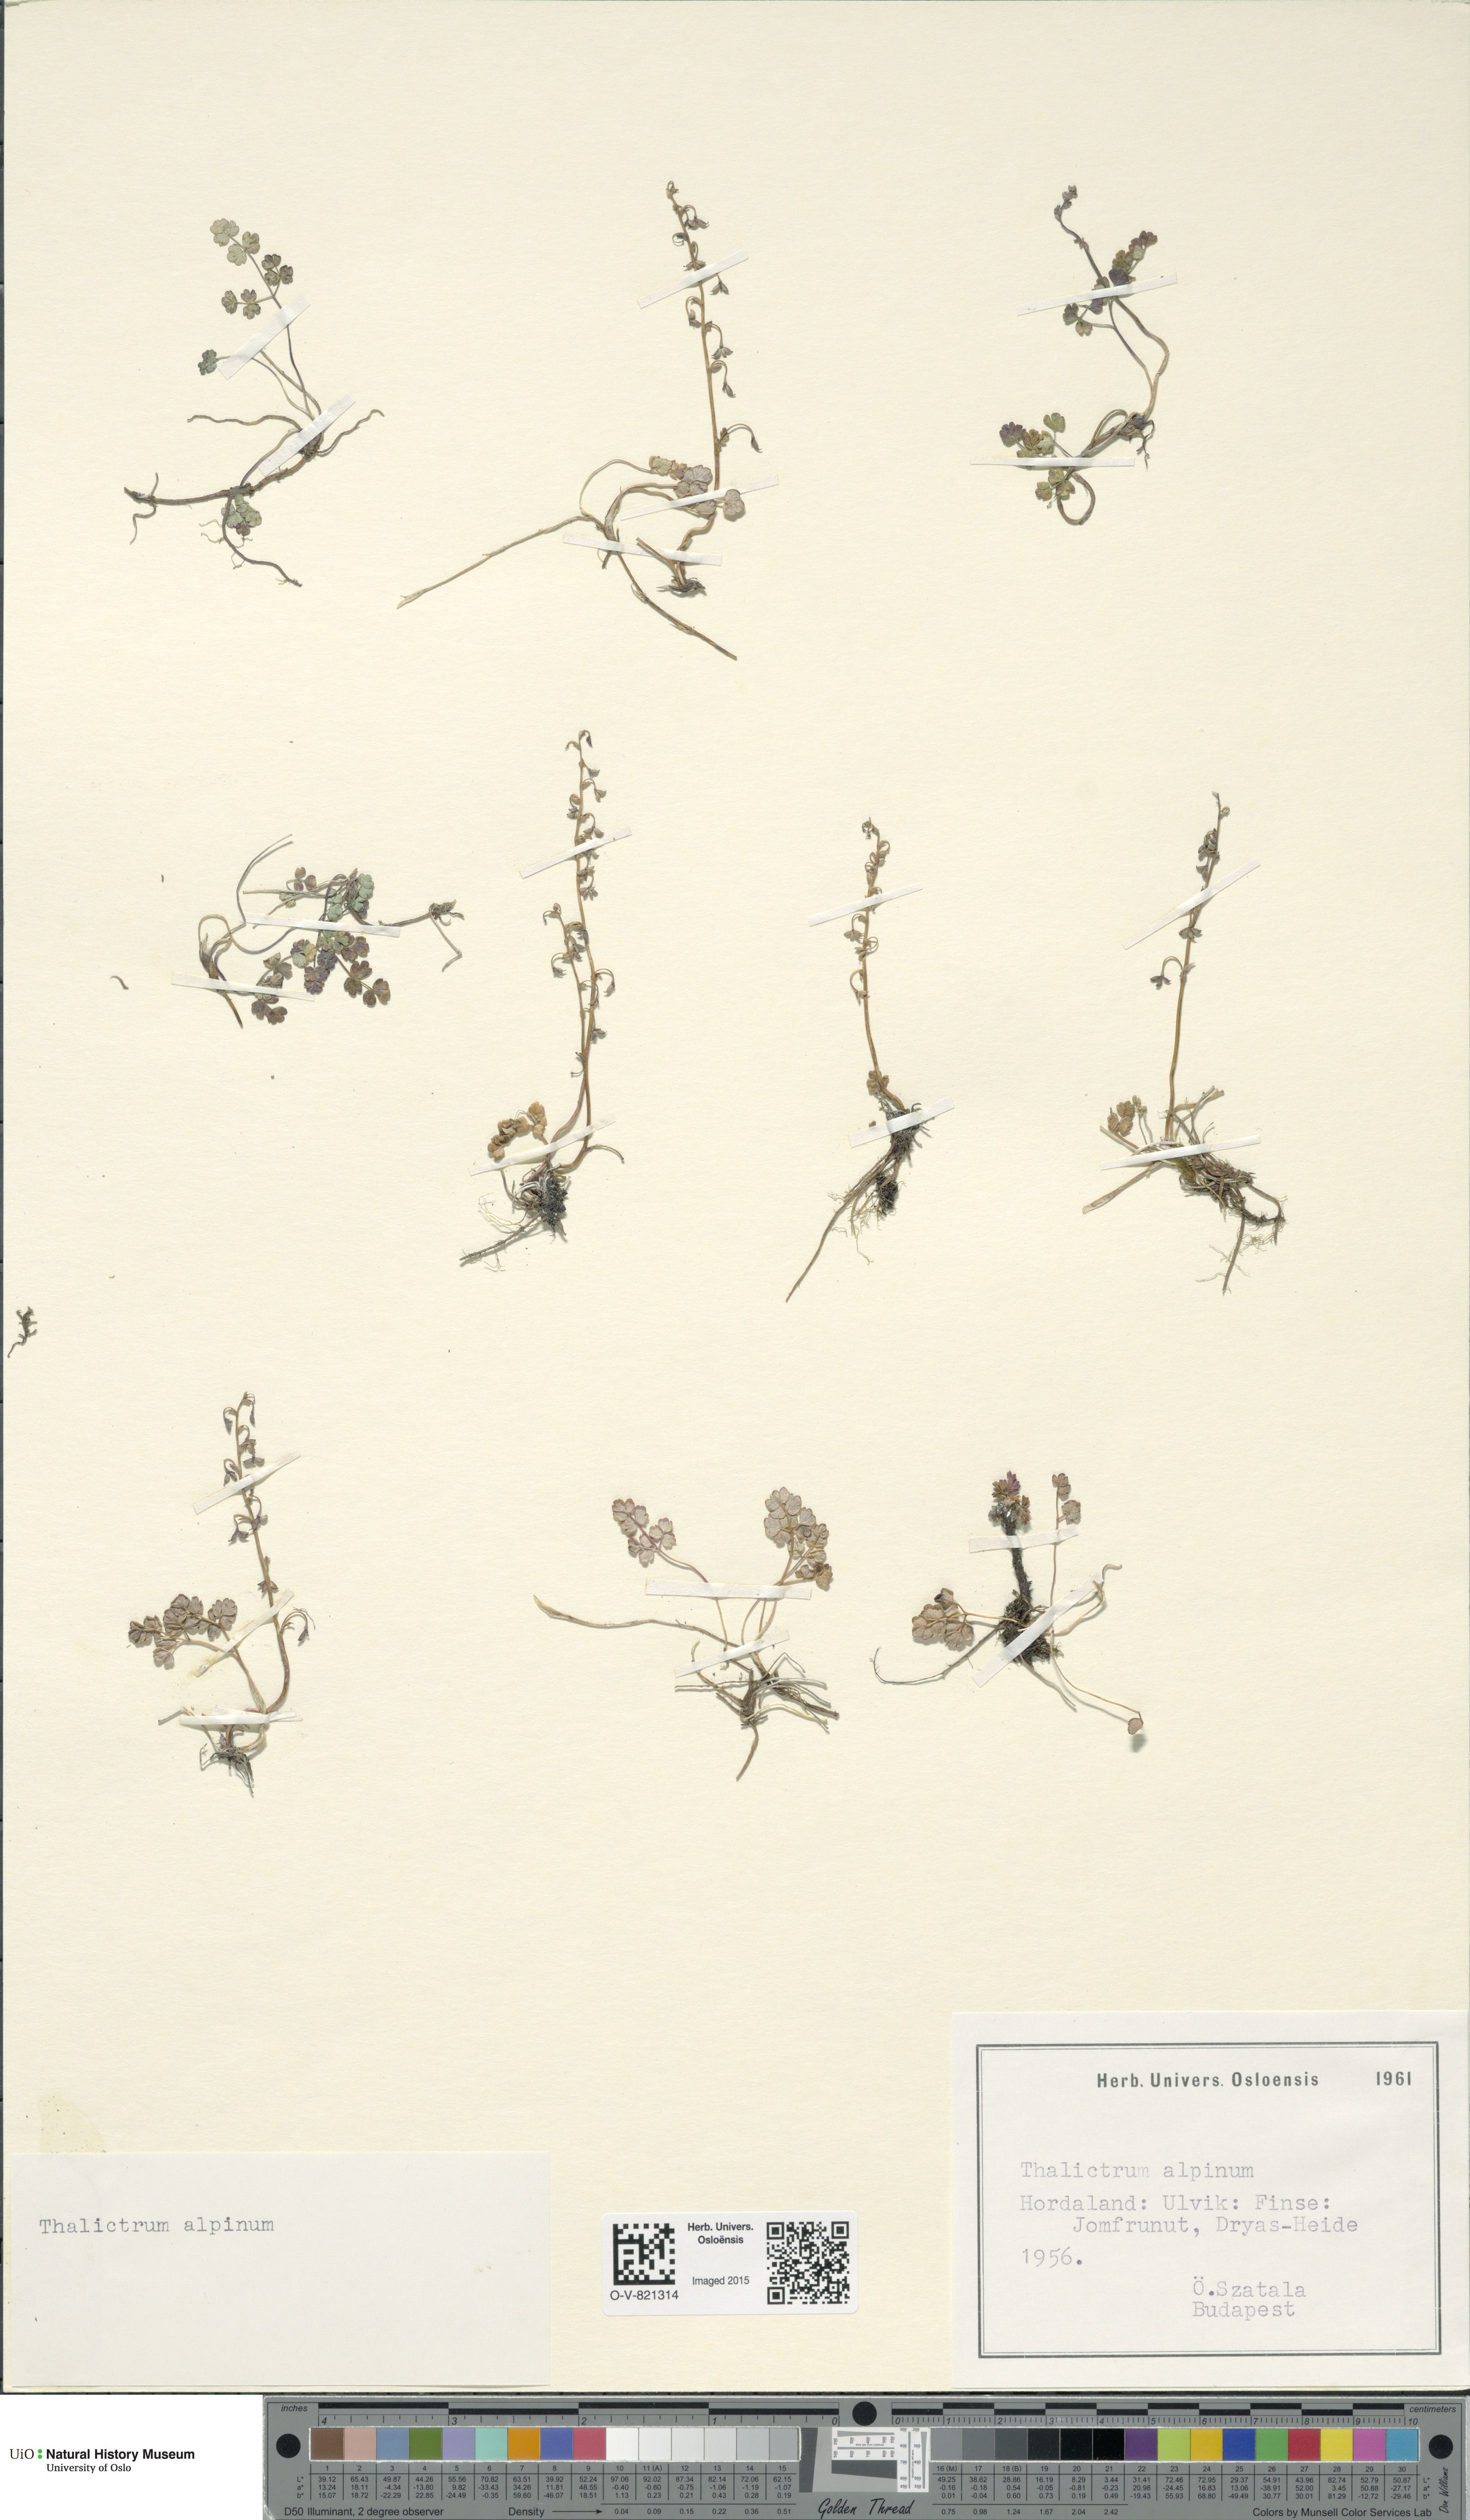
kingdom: Plantae
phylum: Tracheophyta
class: Magnoliopsida
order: Ranunculales
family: Ranunculaceae
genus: Thalictrum
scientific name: Thalictrum alpinum
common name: Alpine meadow-rue
